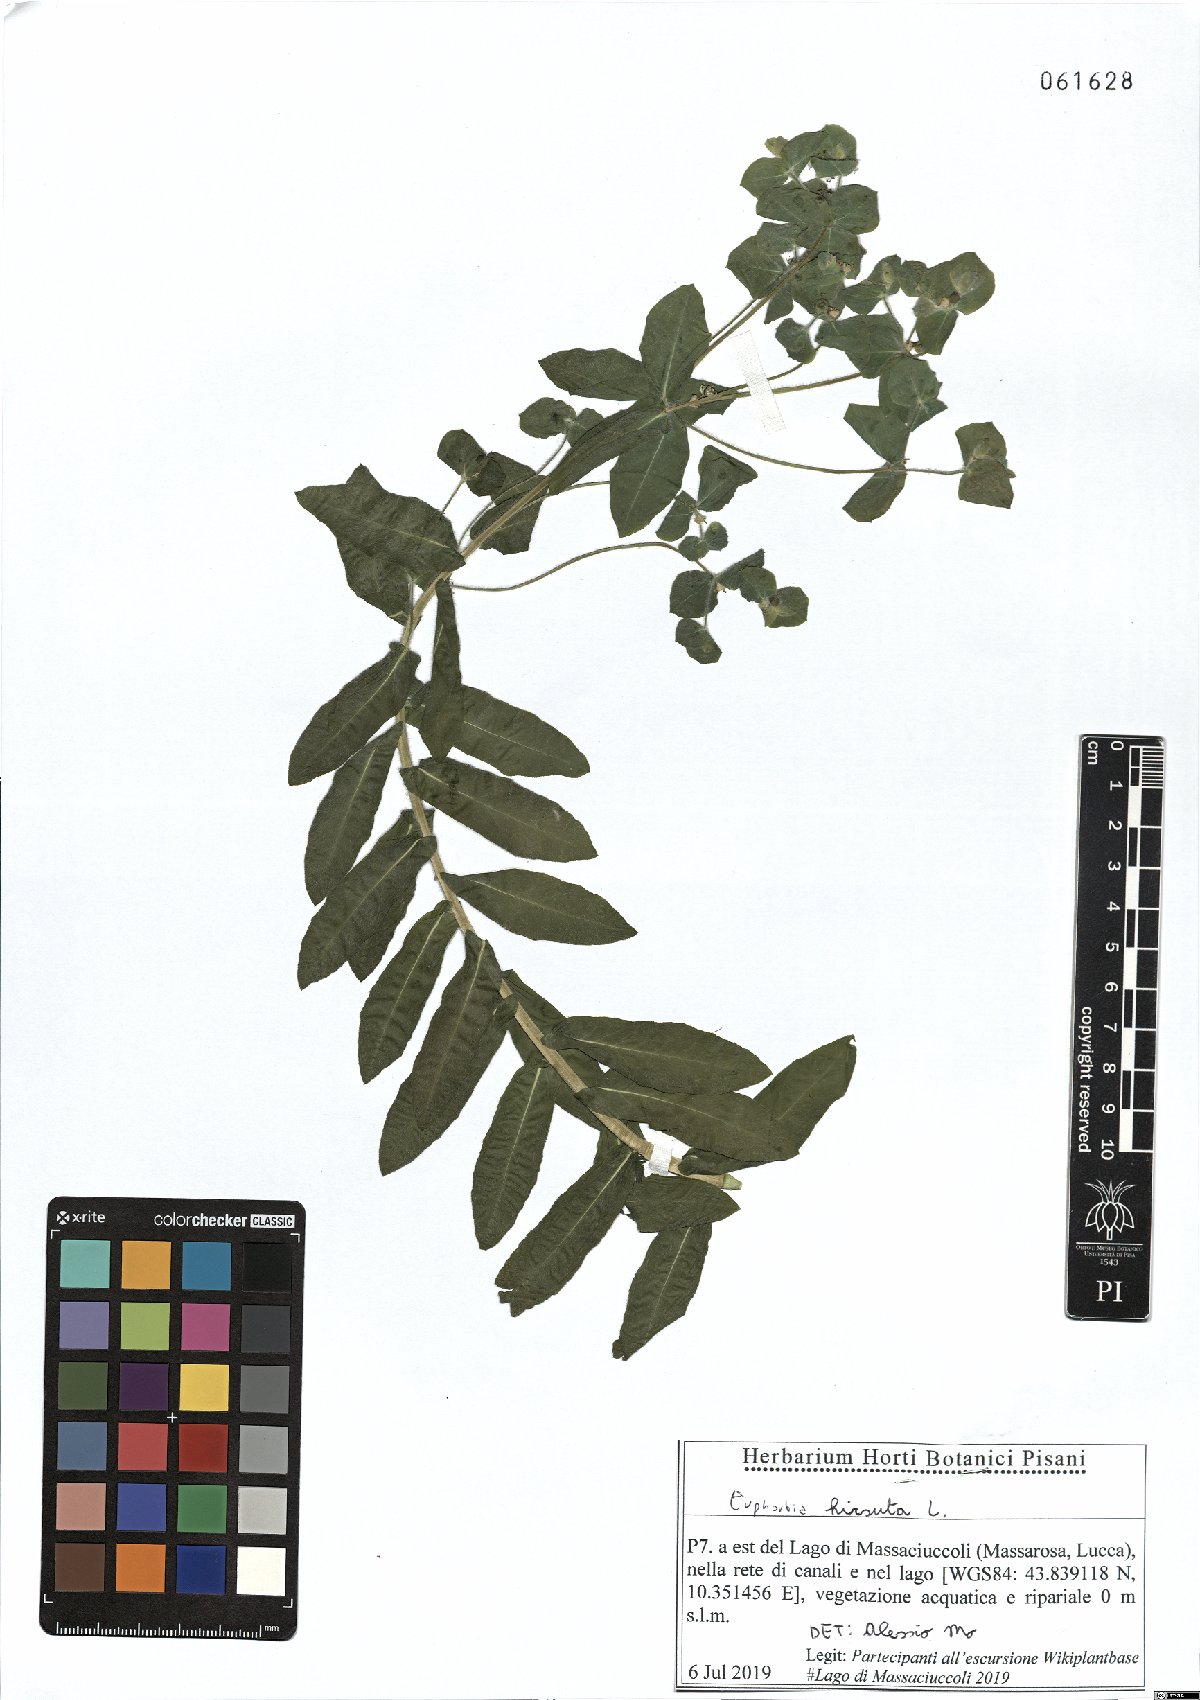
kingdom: Plantae
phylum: Tracheophyta
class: Magnoliopsida
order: Malpighiales
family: Euphorbiaceae
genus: Euphorbia
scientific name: Euphorbia hirsuta
